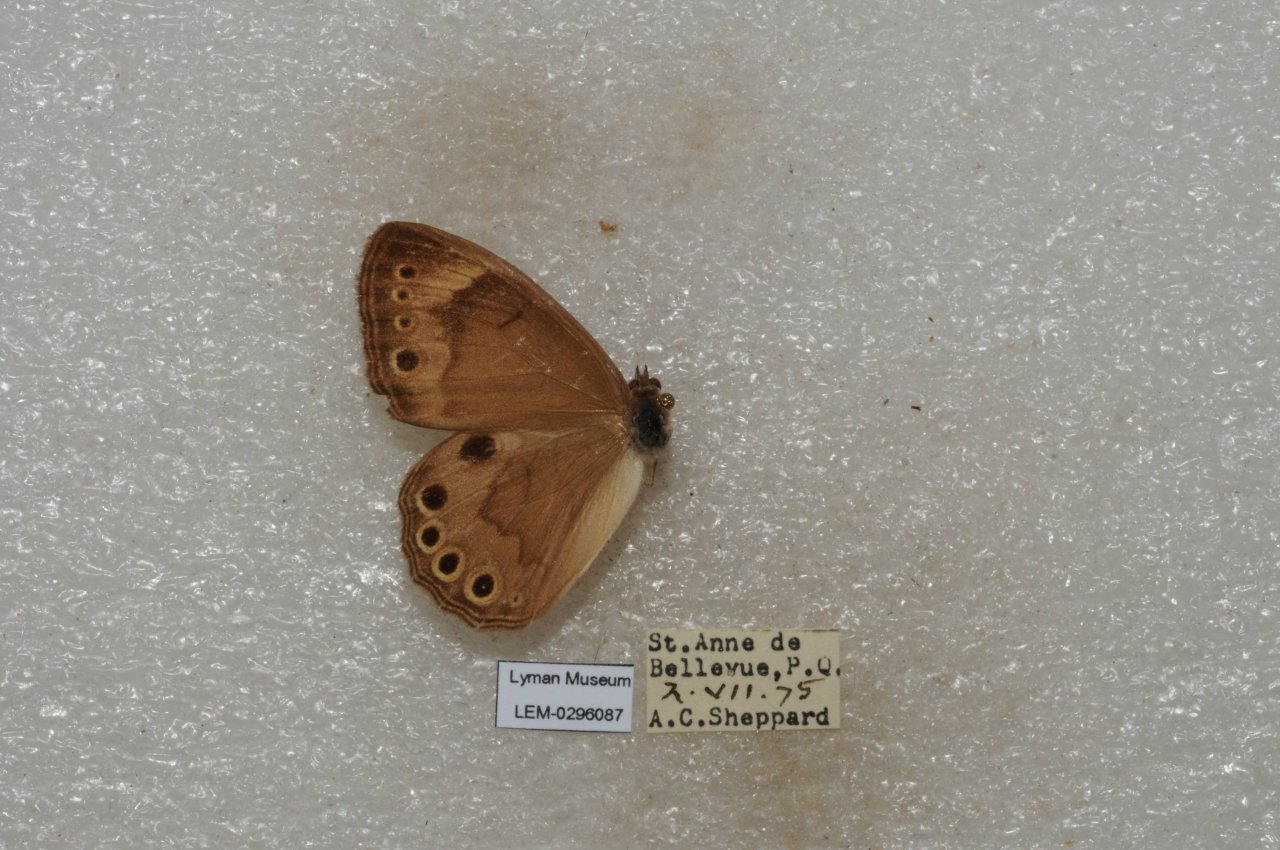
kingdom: Animalia
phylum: Arthropoda
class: Insecta
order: Lepidoptera
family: Nymphalidae
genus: Lethe
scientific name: Lethe eurydice
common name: Eyed Brown
